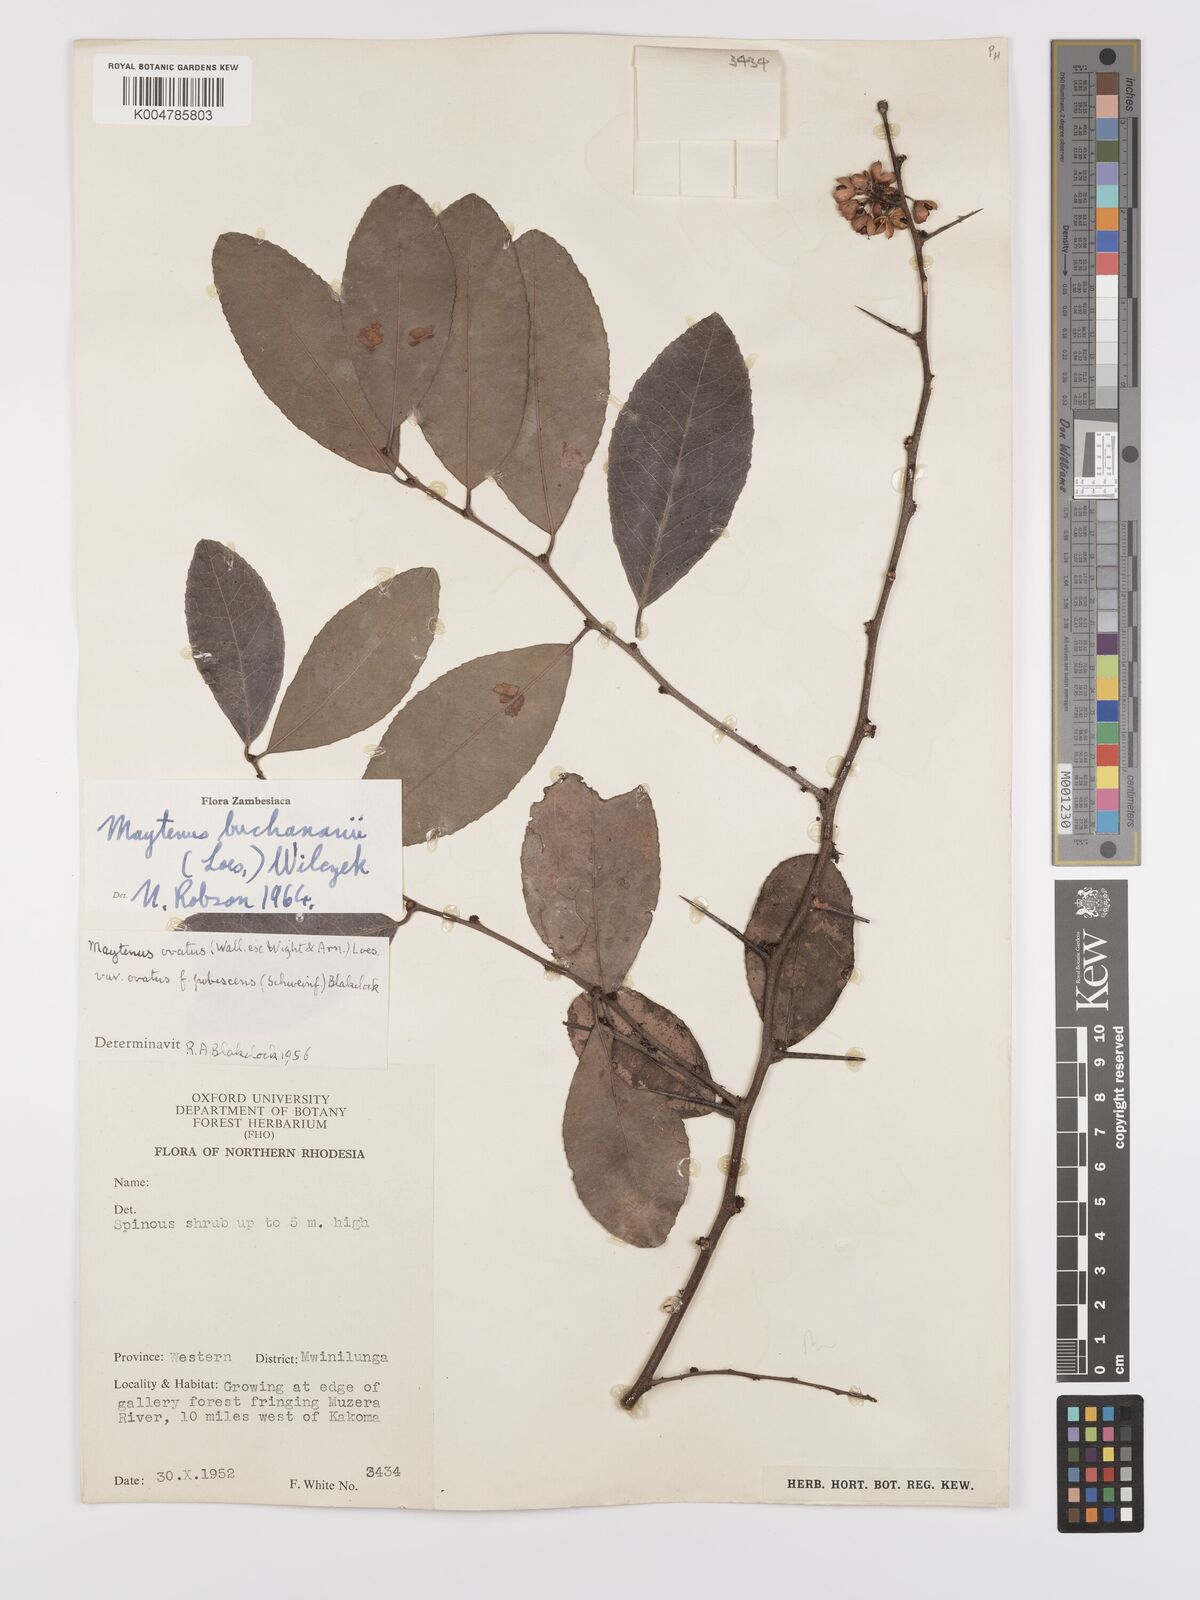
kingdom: Plantae
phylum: Tracheophyta
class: Magnoliopsida
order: Celastrales
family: Celastraceae
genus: Gymnosporia
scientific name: Gymnosporia buchananii
